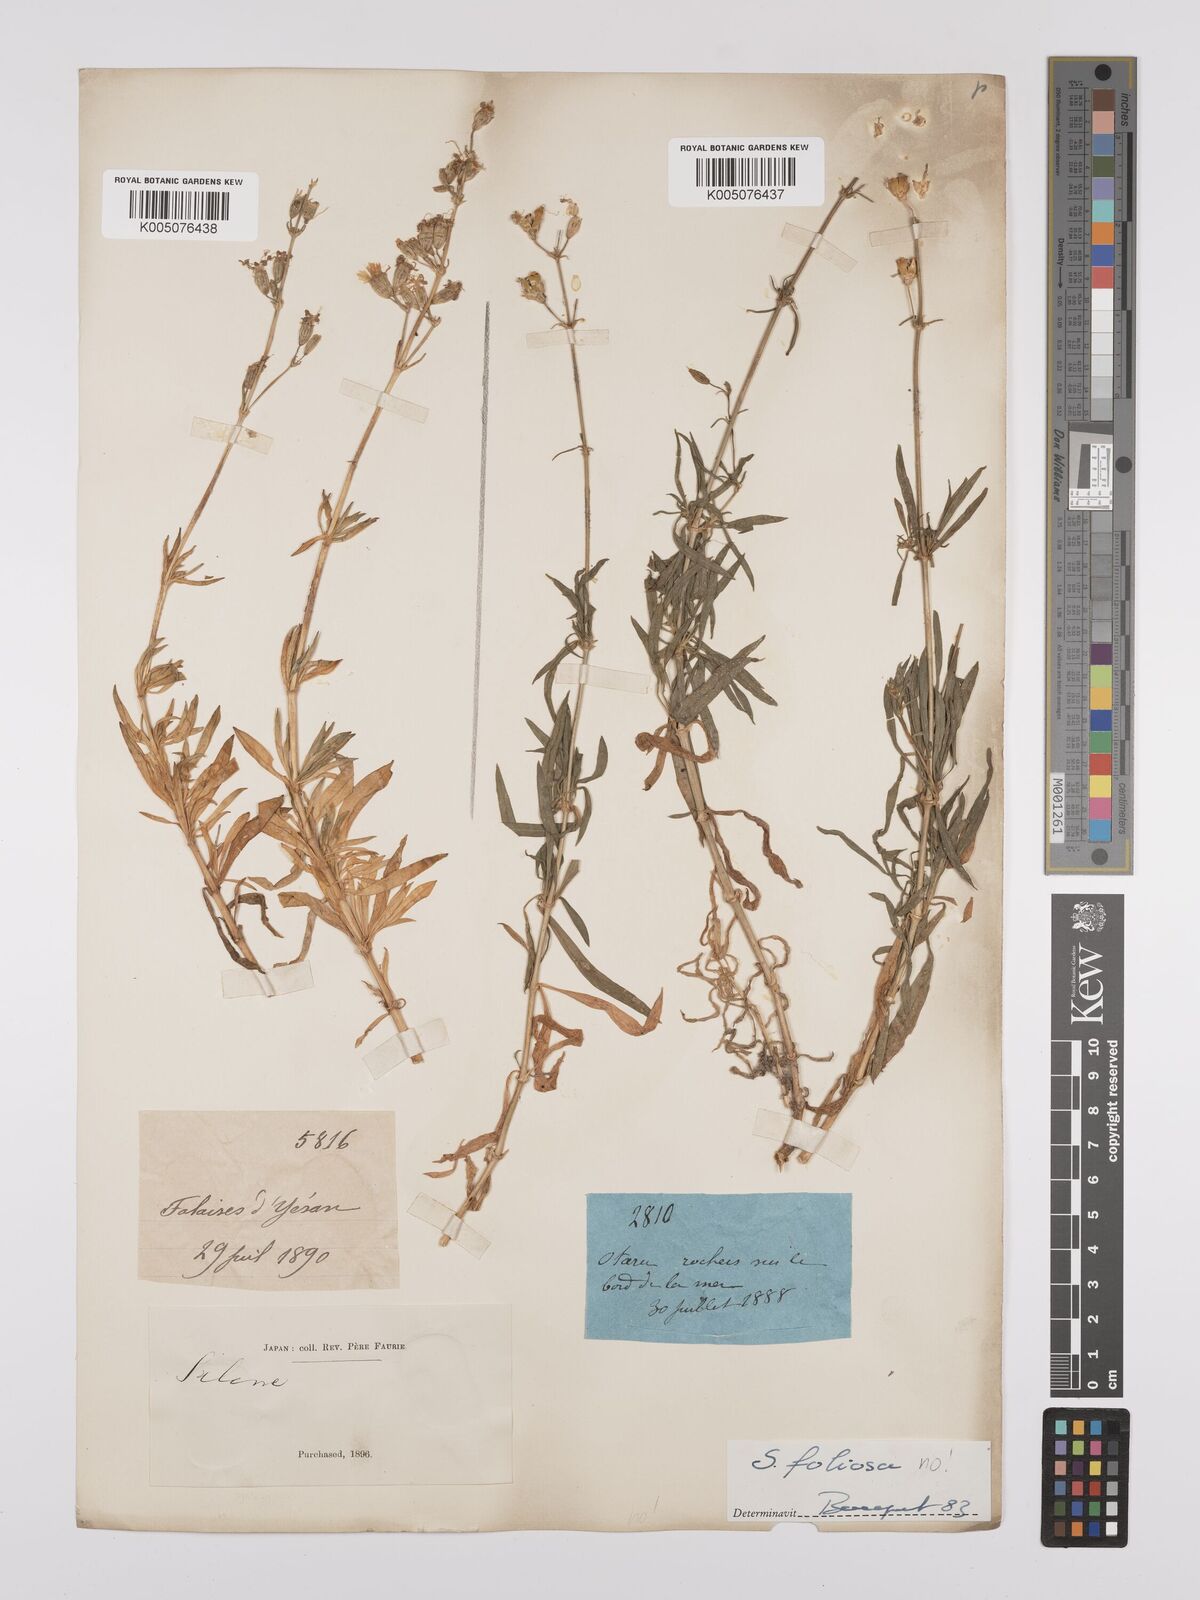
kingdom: Plantae
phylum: Tracheophyta
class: Magnoliopsida
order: Caryophyllales
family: Caryophyllaceae
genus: Silene
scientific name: Silene
